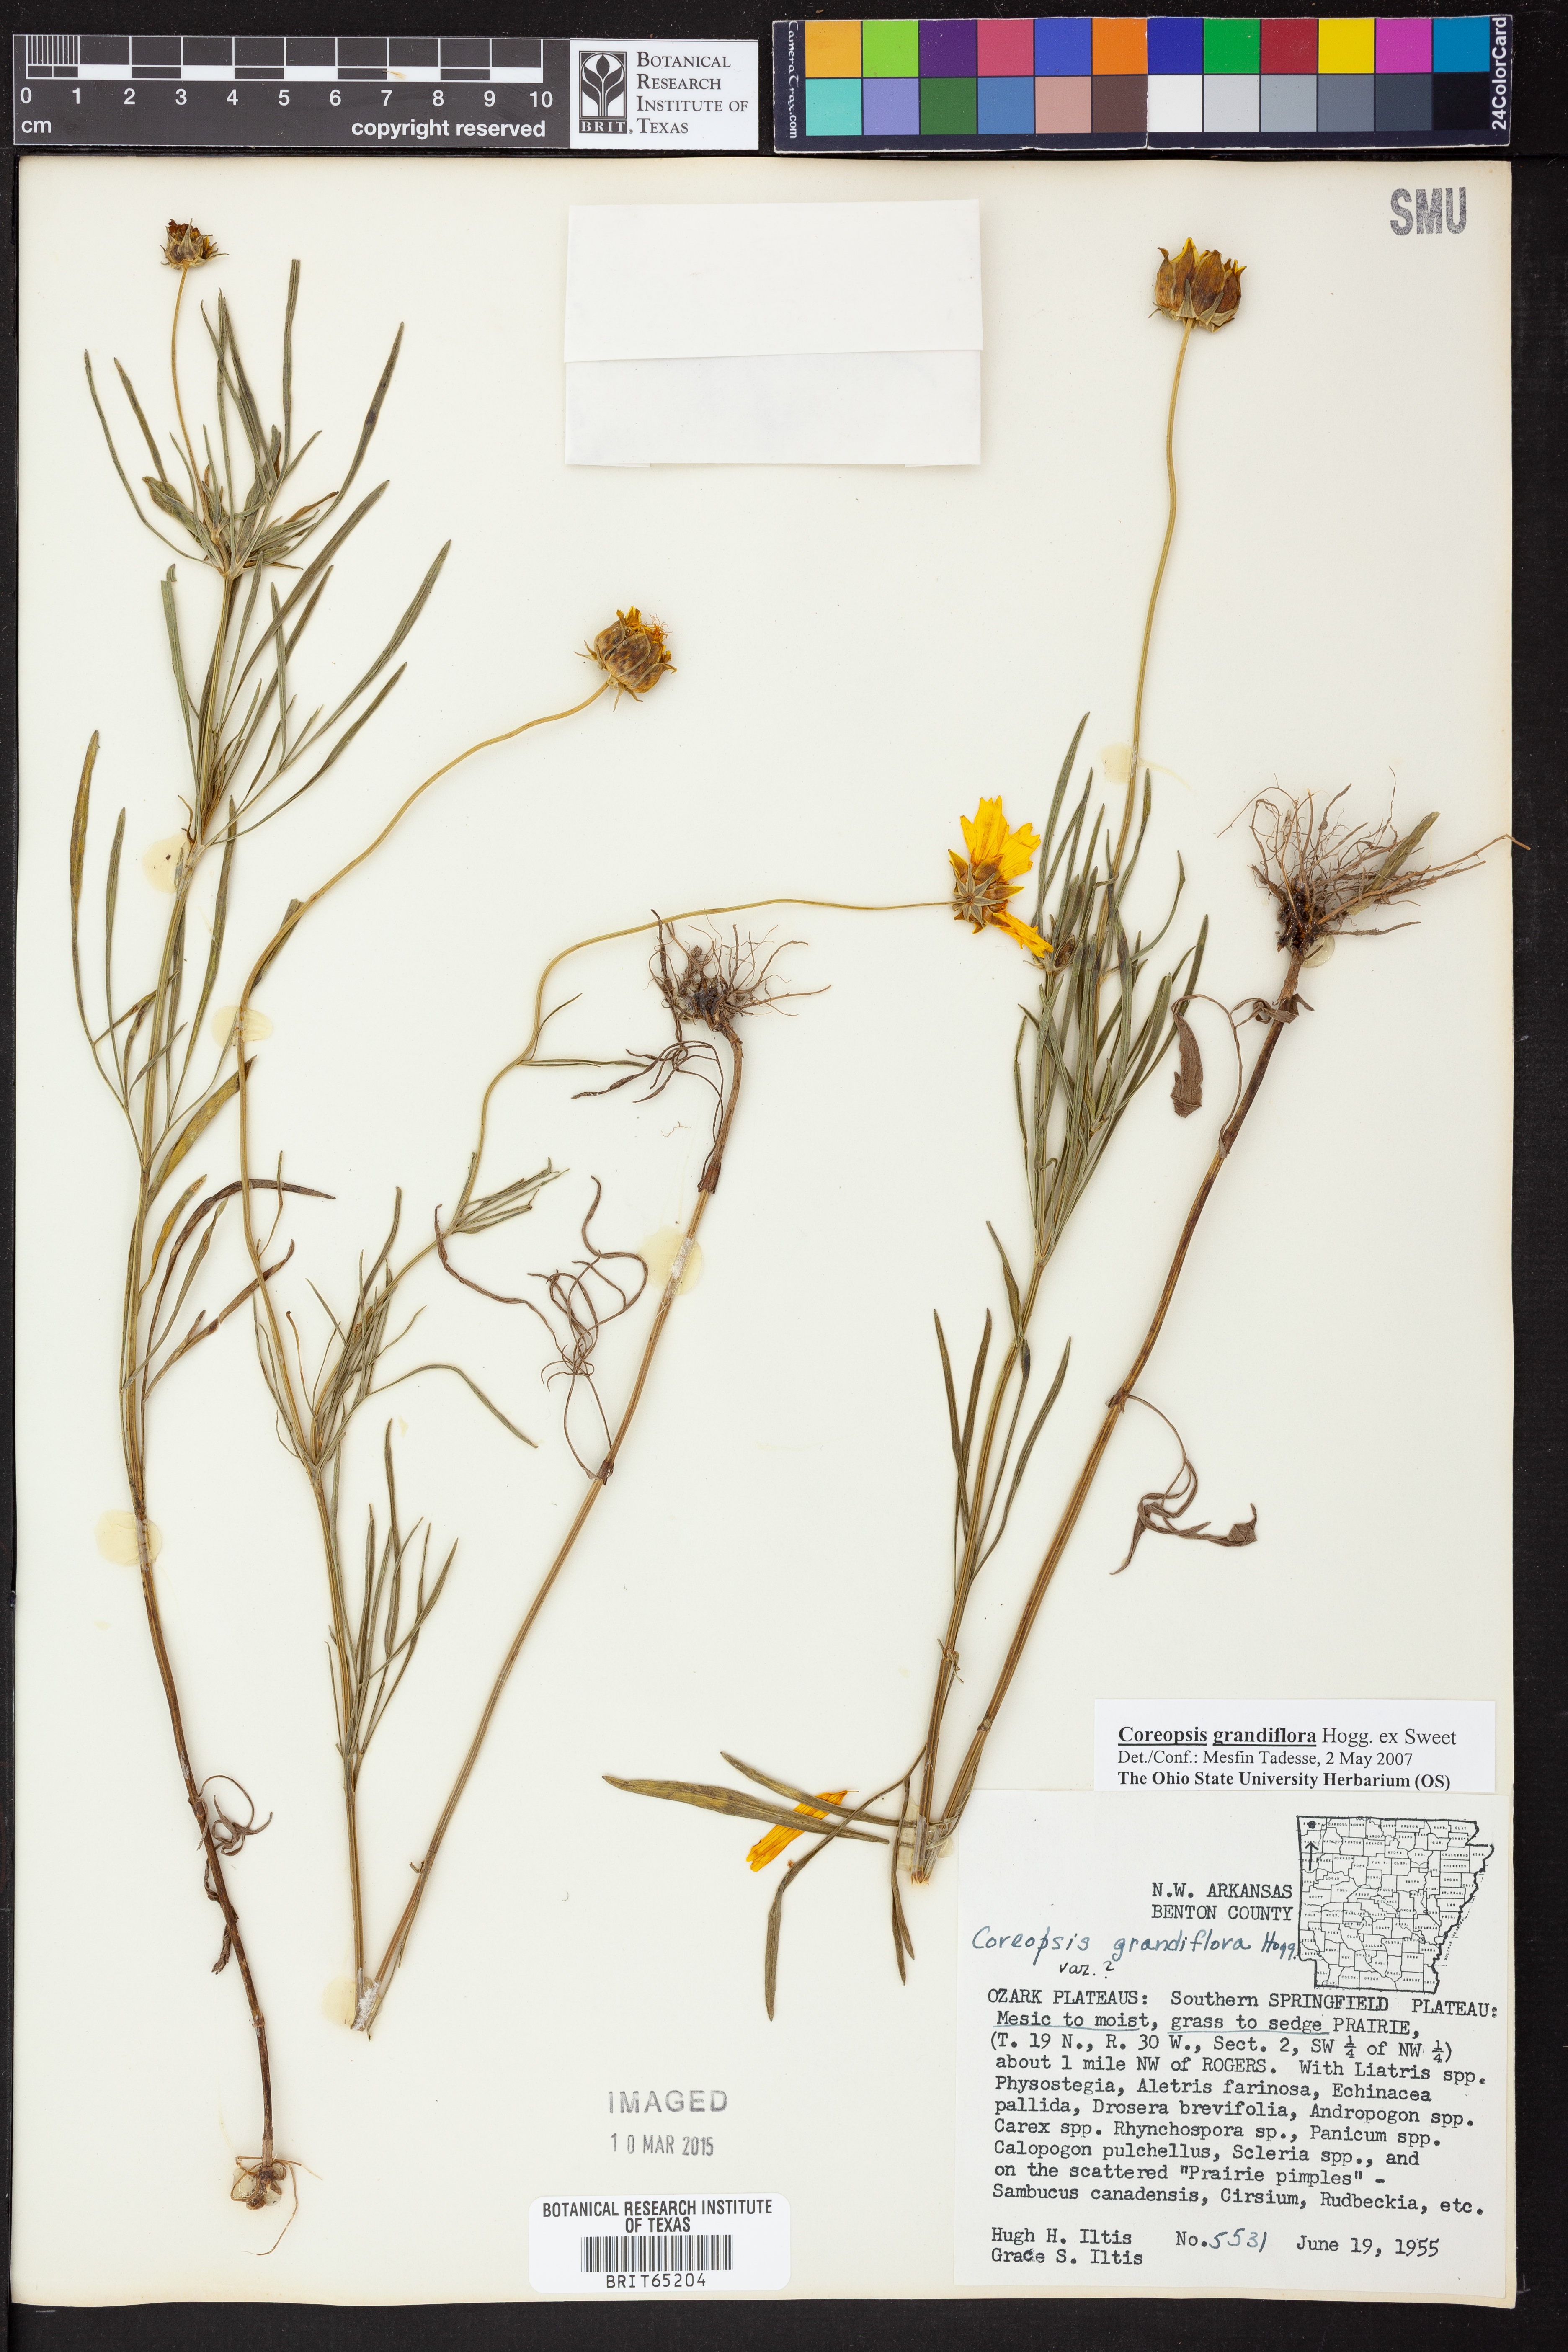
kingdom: Plantae
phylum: Tracheophyta
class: Magnoliopsida
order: Asterales
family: Asteraceae
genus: Coreopsis
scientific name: Coreopsis grandiflora
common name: Large-flowered tickseed
